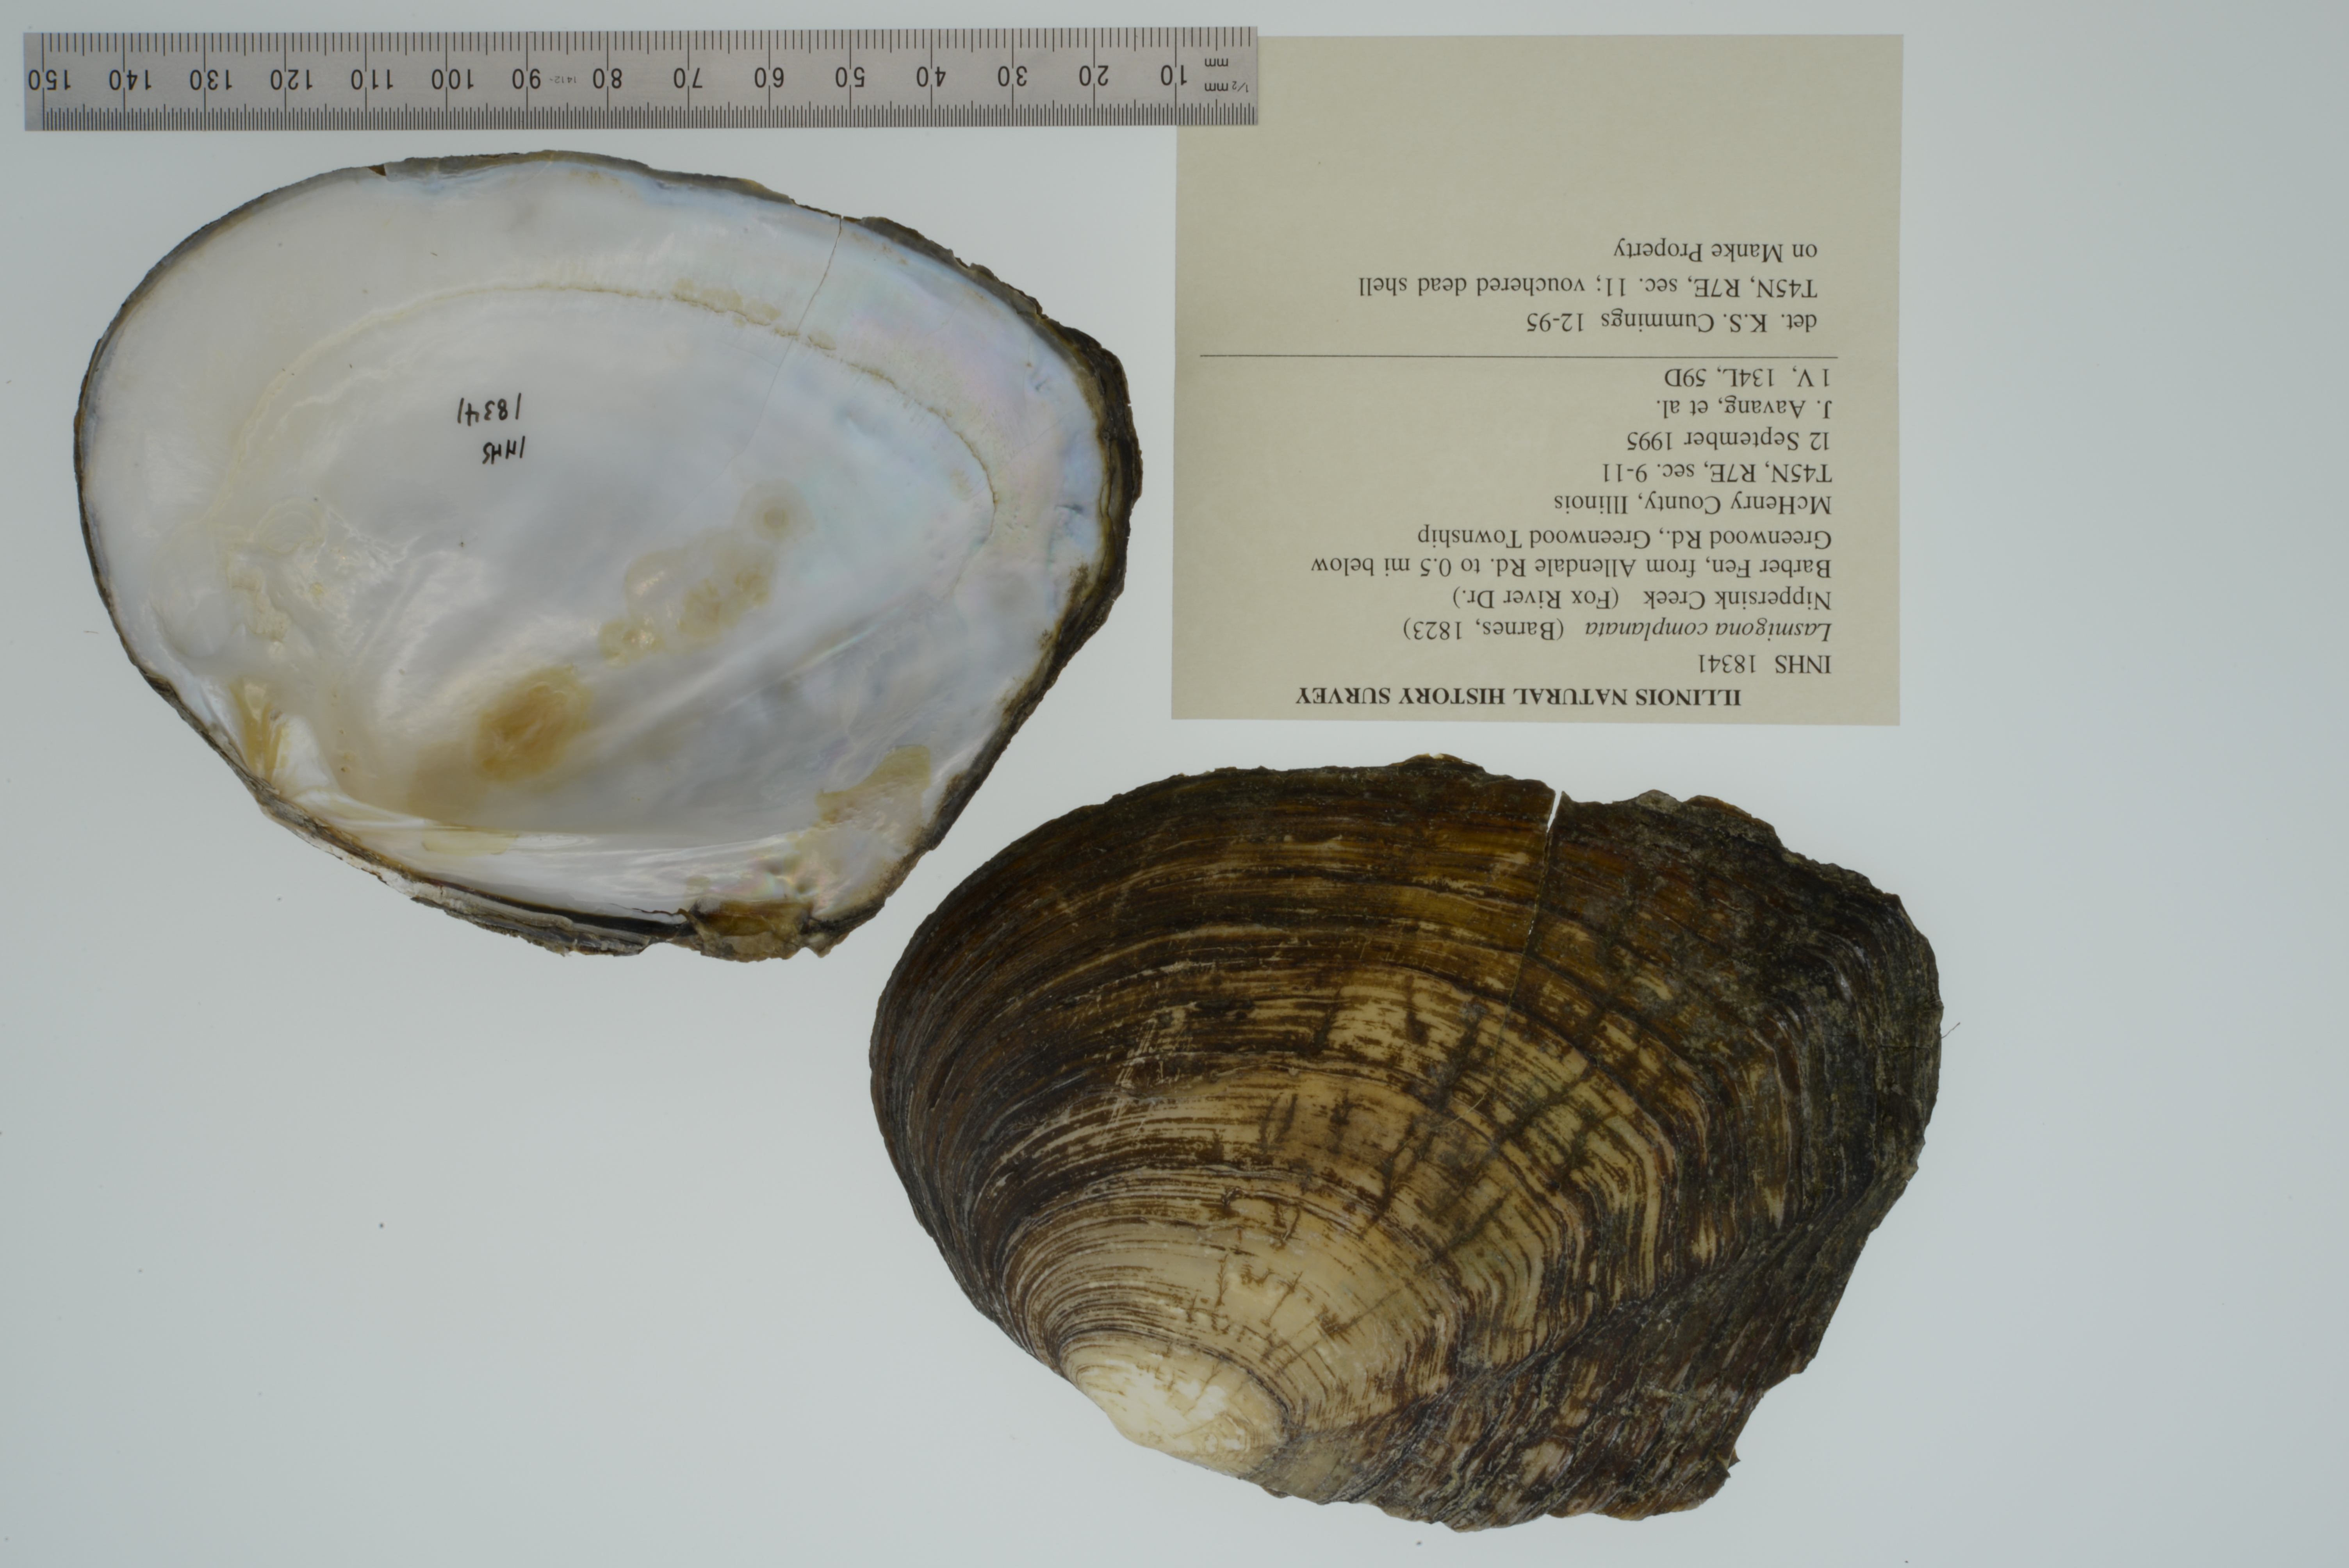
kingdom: Animalia
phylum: Mollusca
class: Bivalvia
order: Unionida
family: Unionidae
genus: Lasmigona
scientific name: Lasmigona complanata
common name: White heelsplitter
